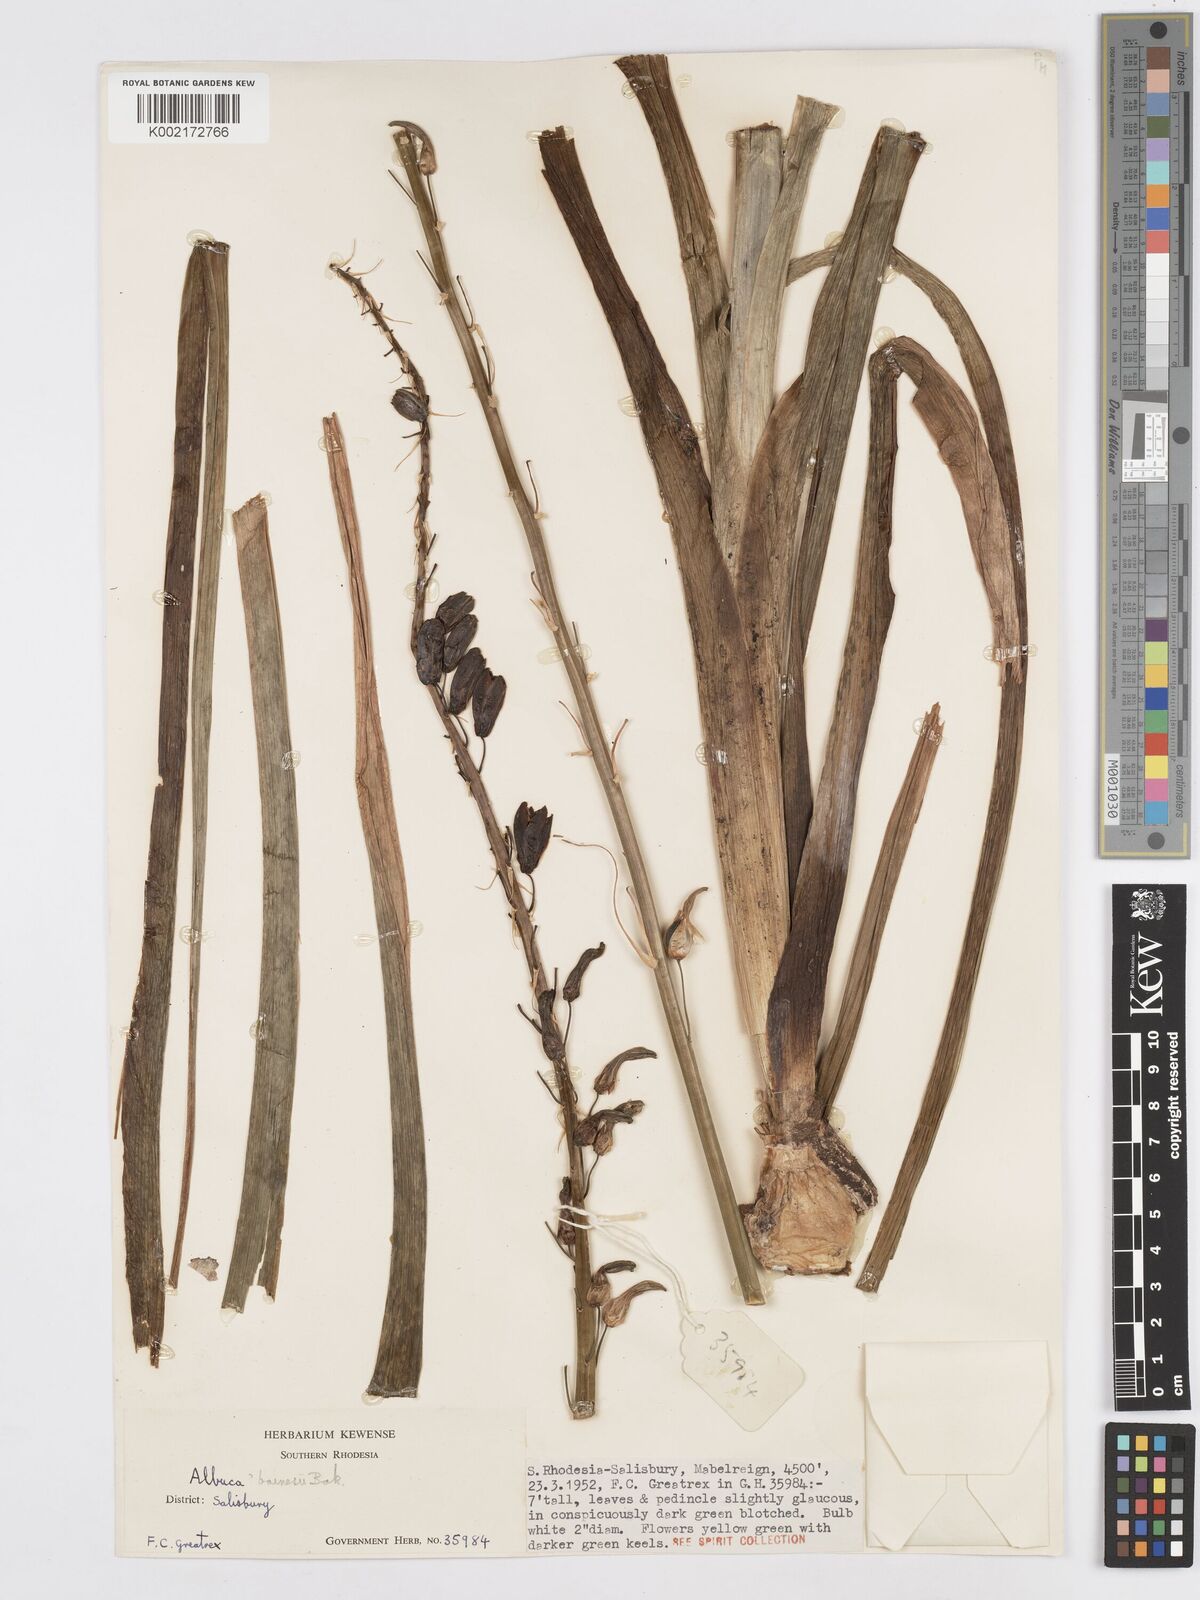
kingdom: Plantae
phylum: Tracheophyta
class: Liliopsida
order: Asparagales
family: Asparagaceae
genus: Albuca
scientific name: Albuca abyssinica
